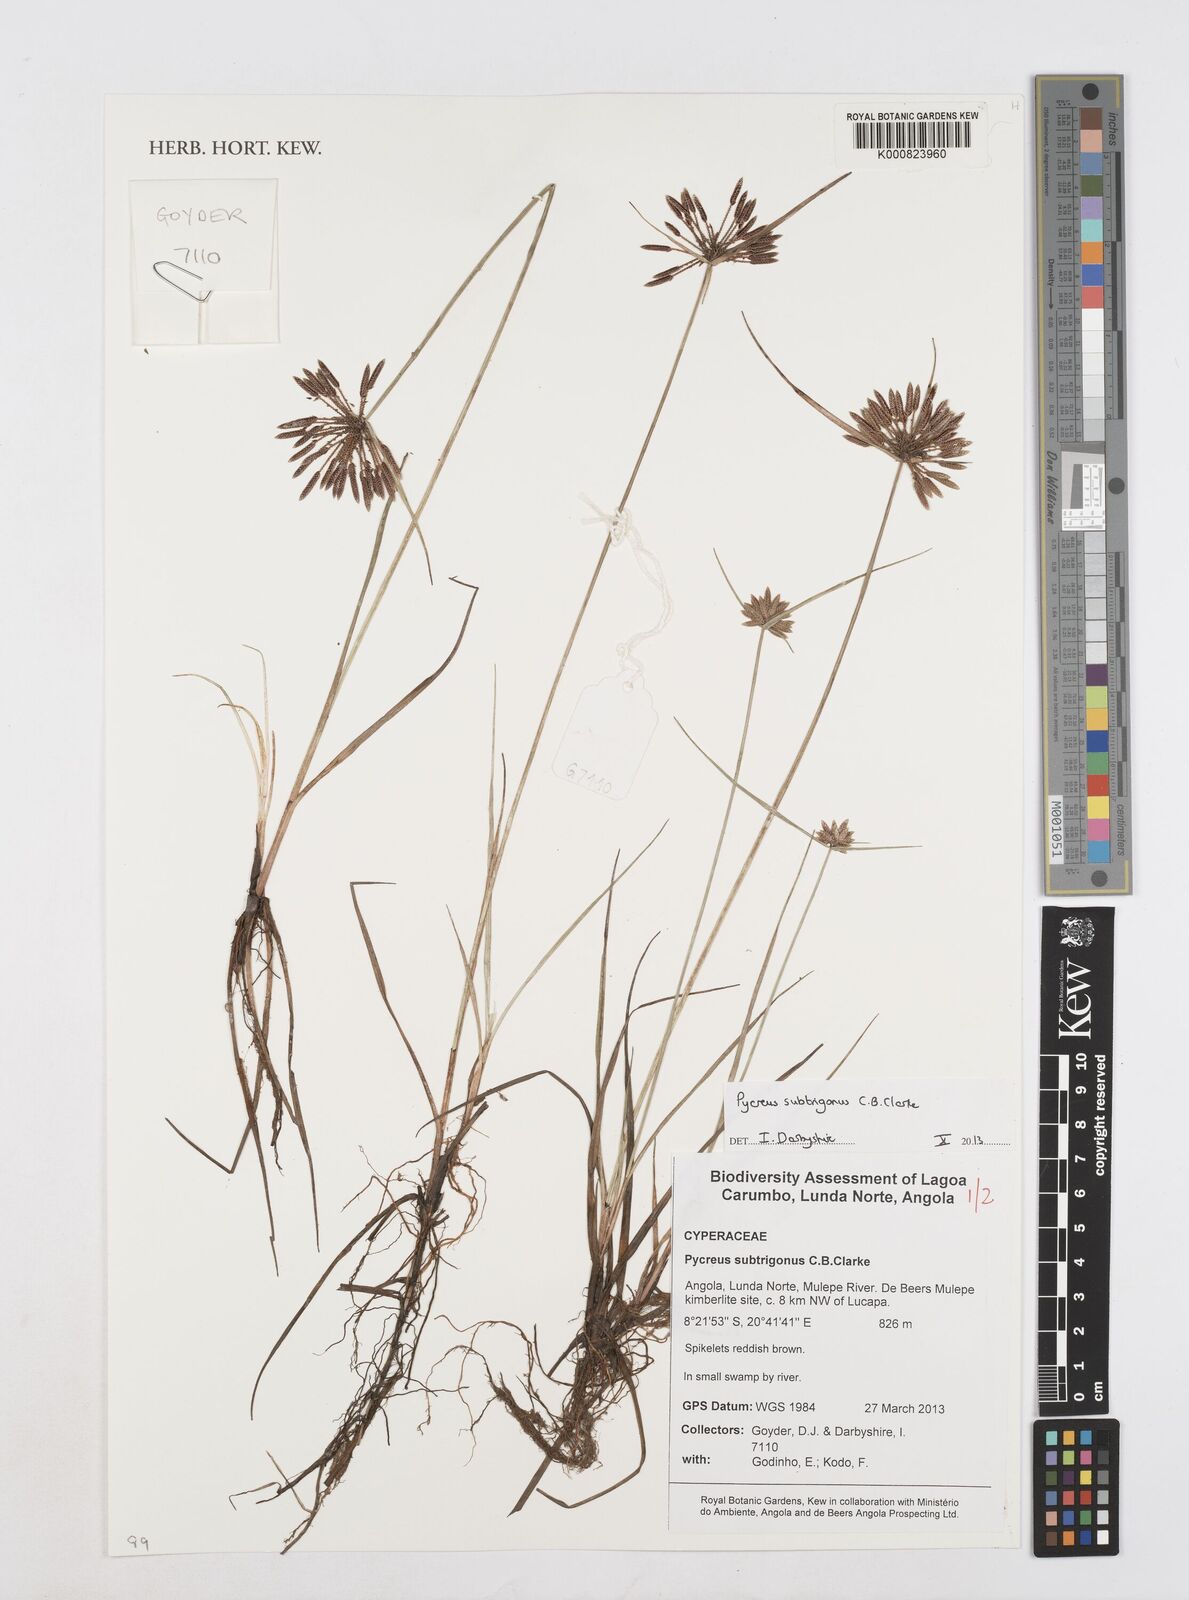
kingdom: Plantae
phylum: Tracheophyta
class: Liliopsida
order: Poales
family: Cyperaceae
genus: Cyperus
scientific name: Cyperus subtrigonus
